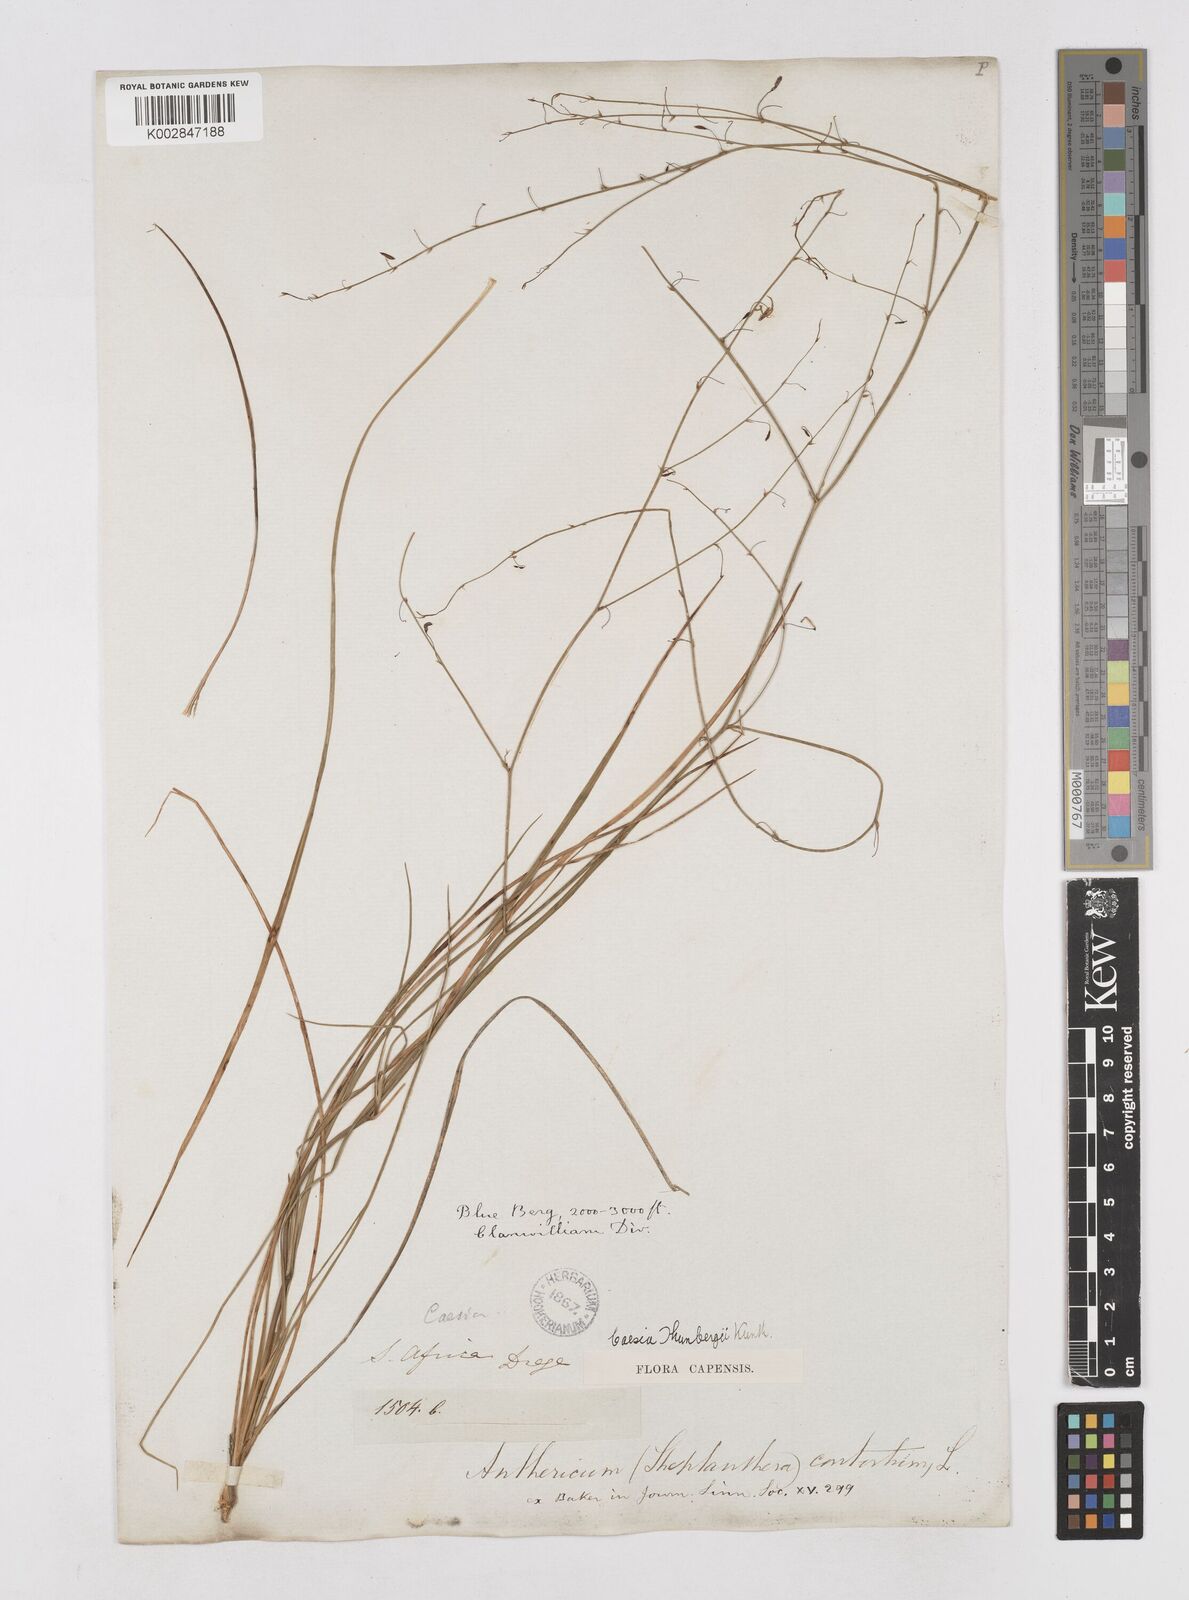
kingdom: Plantae
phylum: Tracheophyta
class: Liliopsida
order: Asparagales
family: Asphodelaceae
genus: Caesia
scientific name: Caesia contorta
